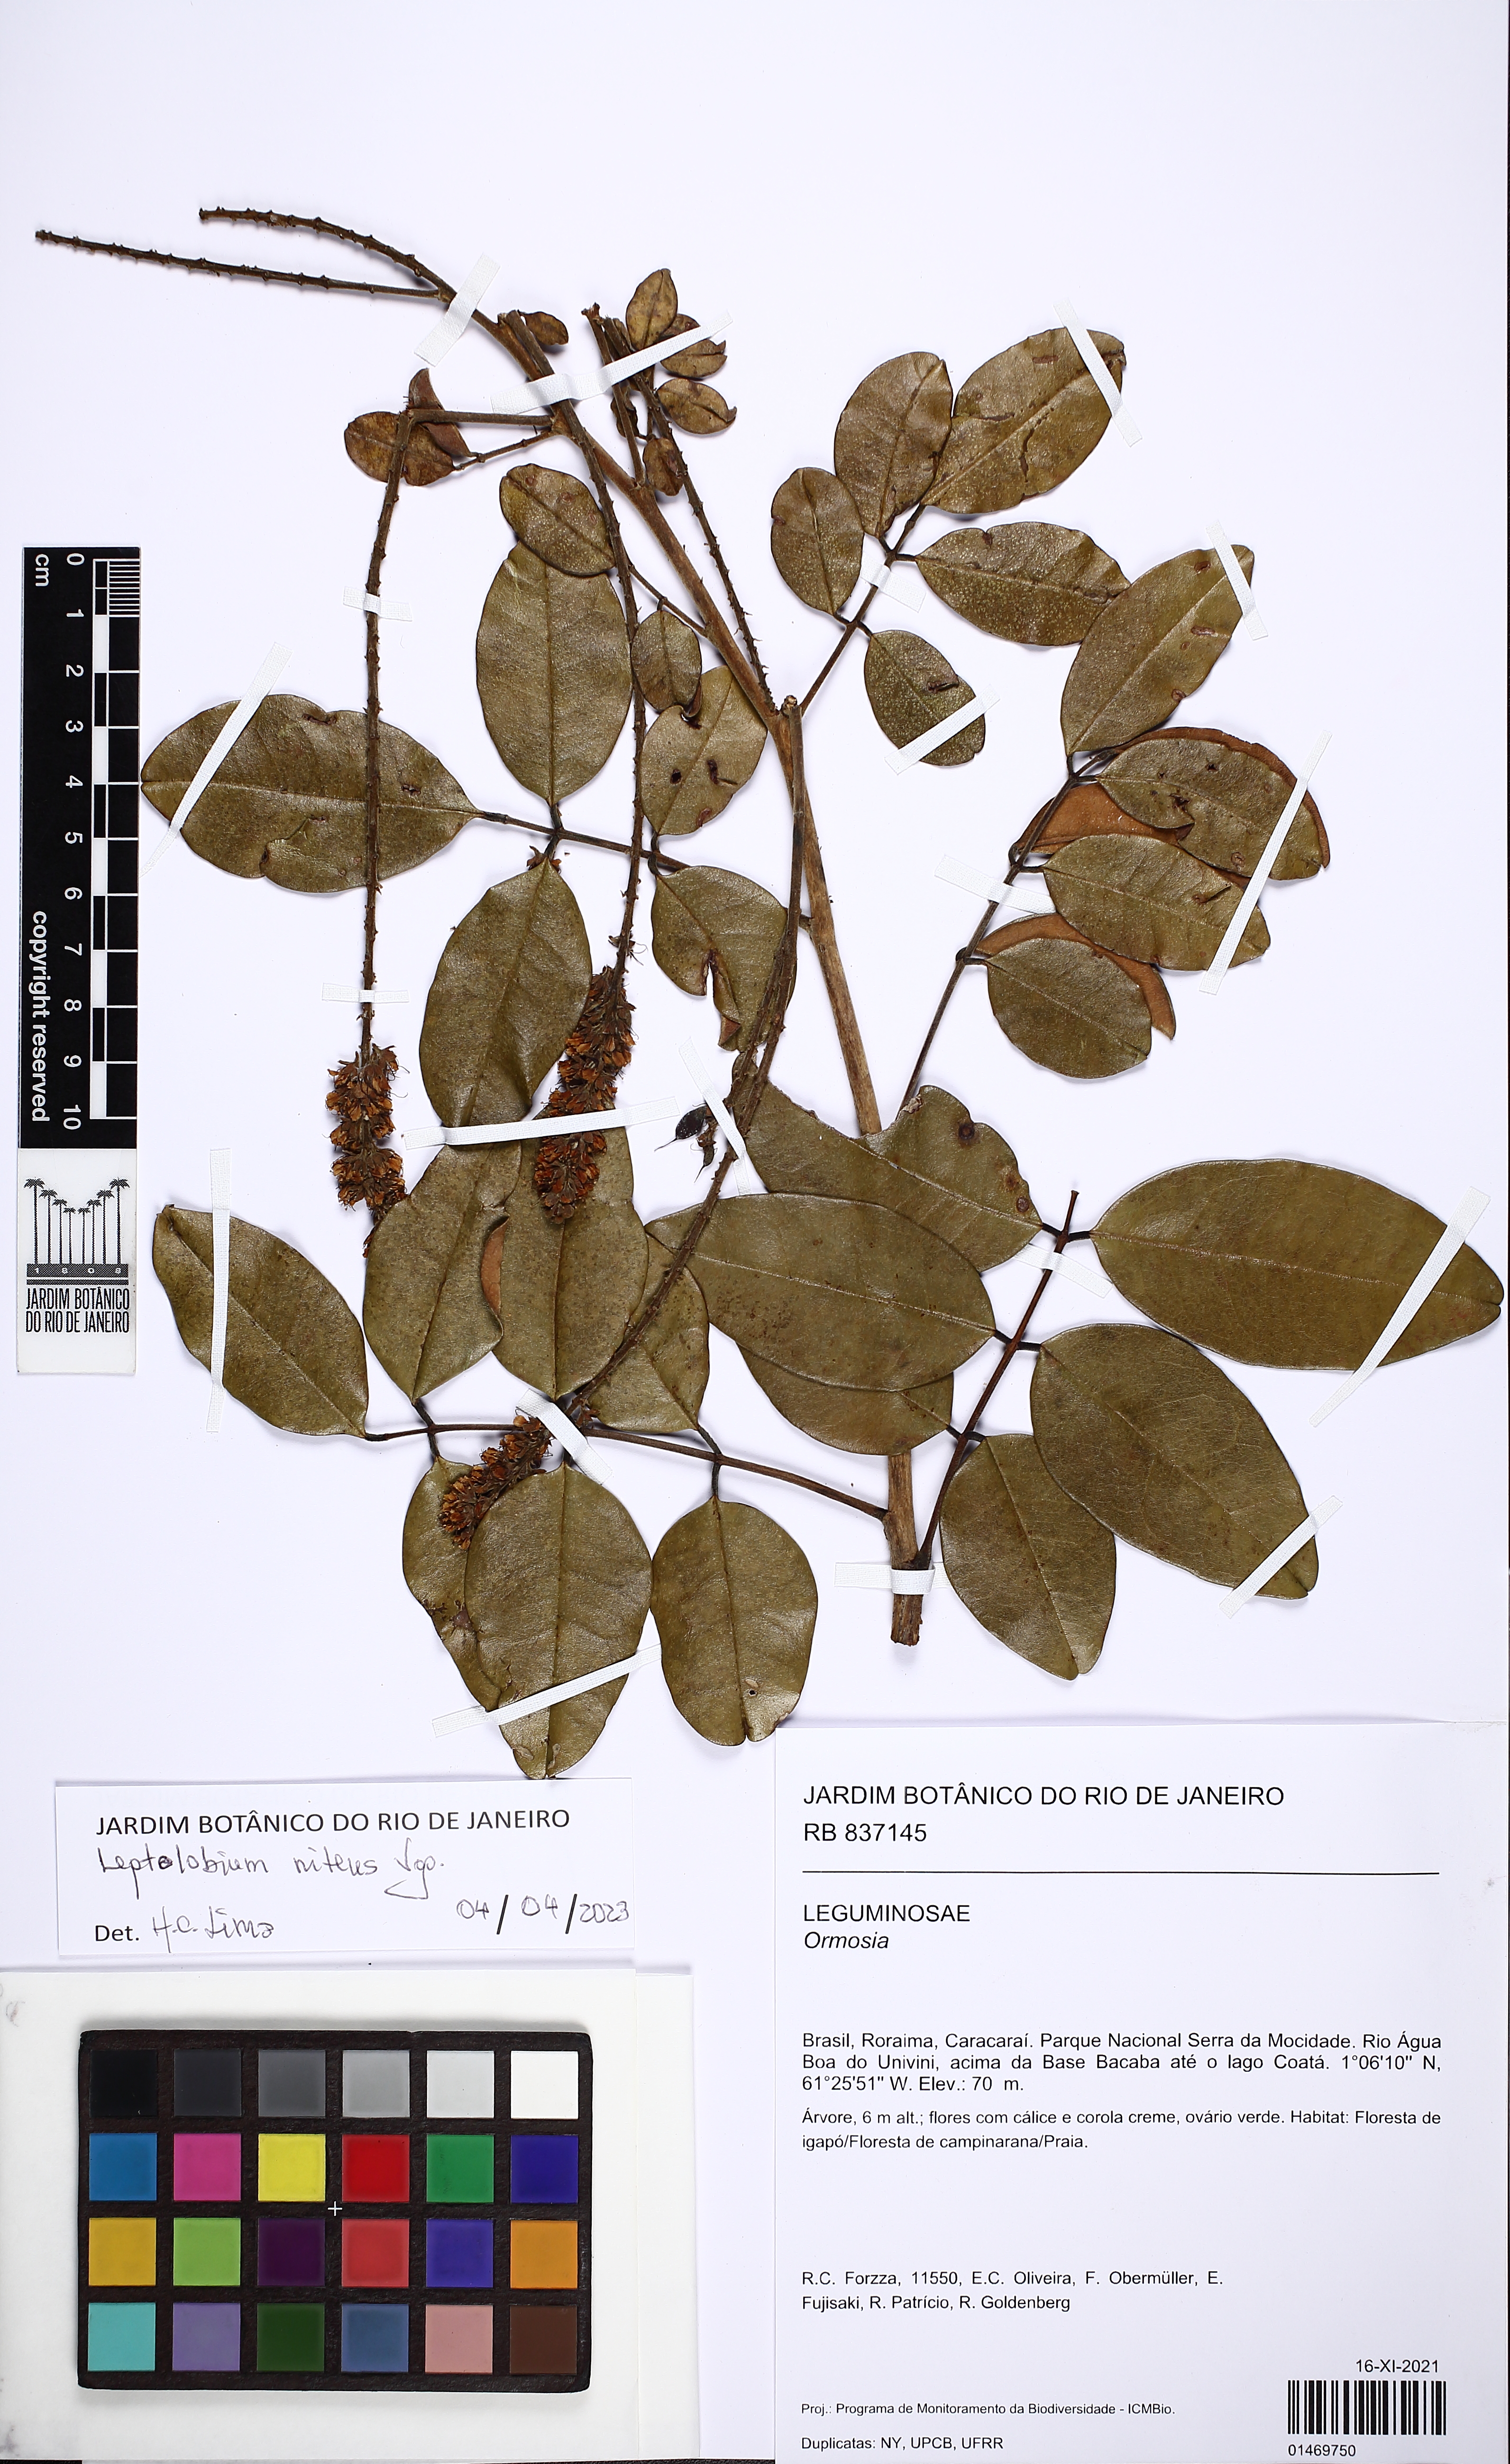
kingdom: Plantae
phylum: Tracheophyta
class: Magnoliopsida
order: Fabales
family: Fabaceae
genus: Leptolobium
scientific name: Leptolobium nitens
